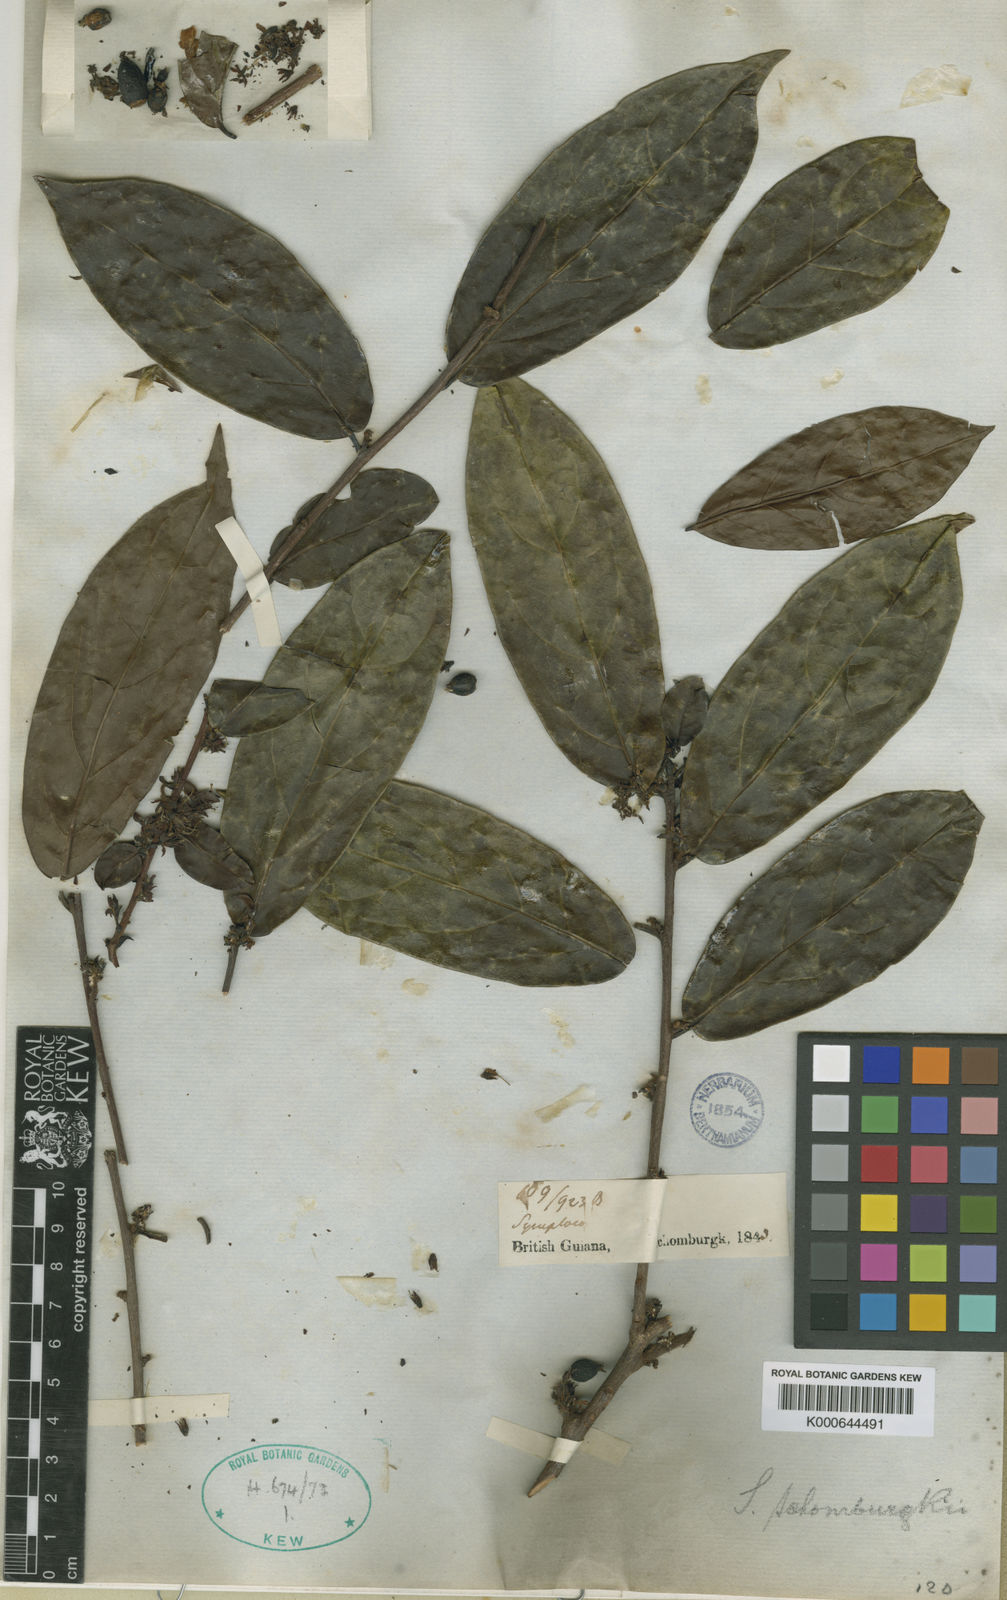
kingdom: Plantae
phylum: Tracheophyta
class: Magnoliopsida
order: Ericales
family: Symplocaceae
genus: Symplocos
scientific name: Symplocos schomburgkii
